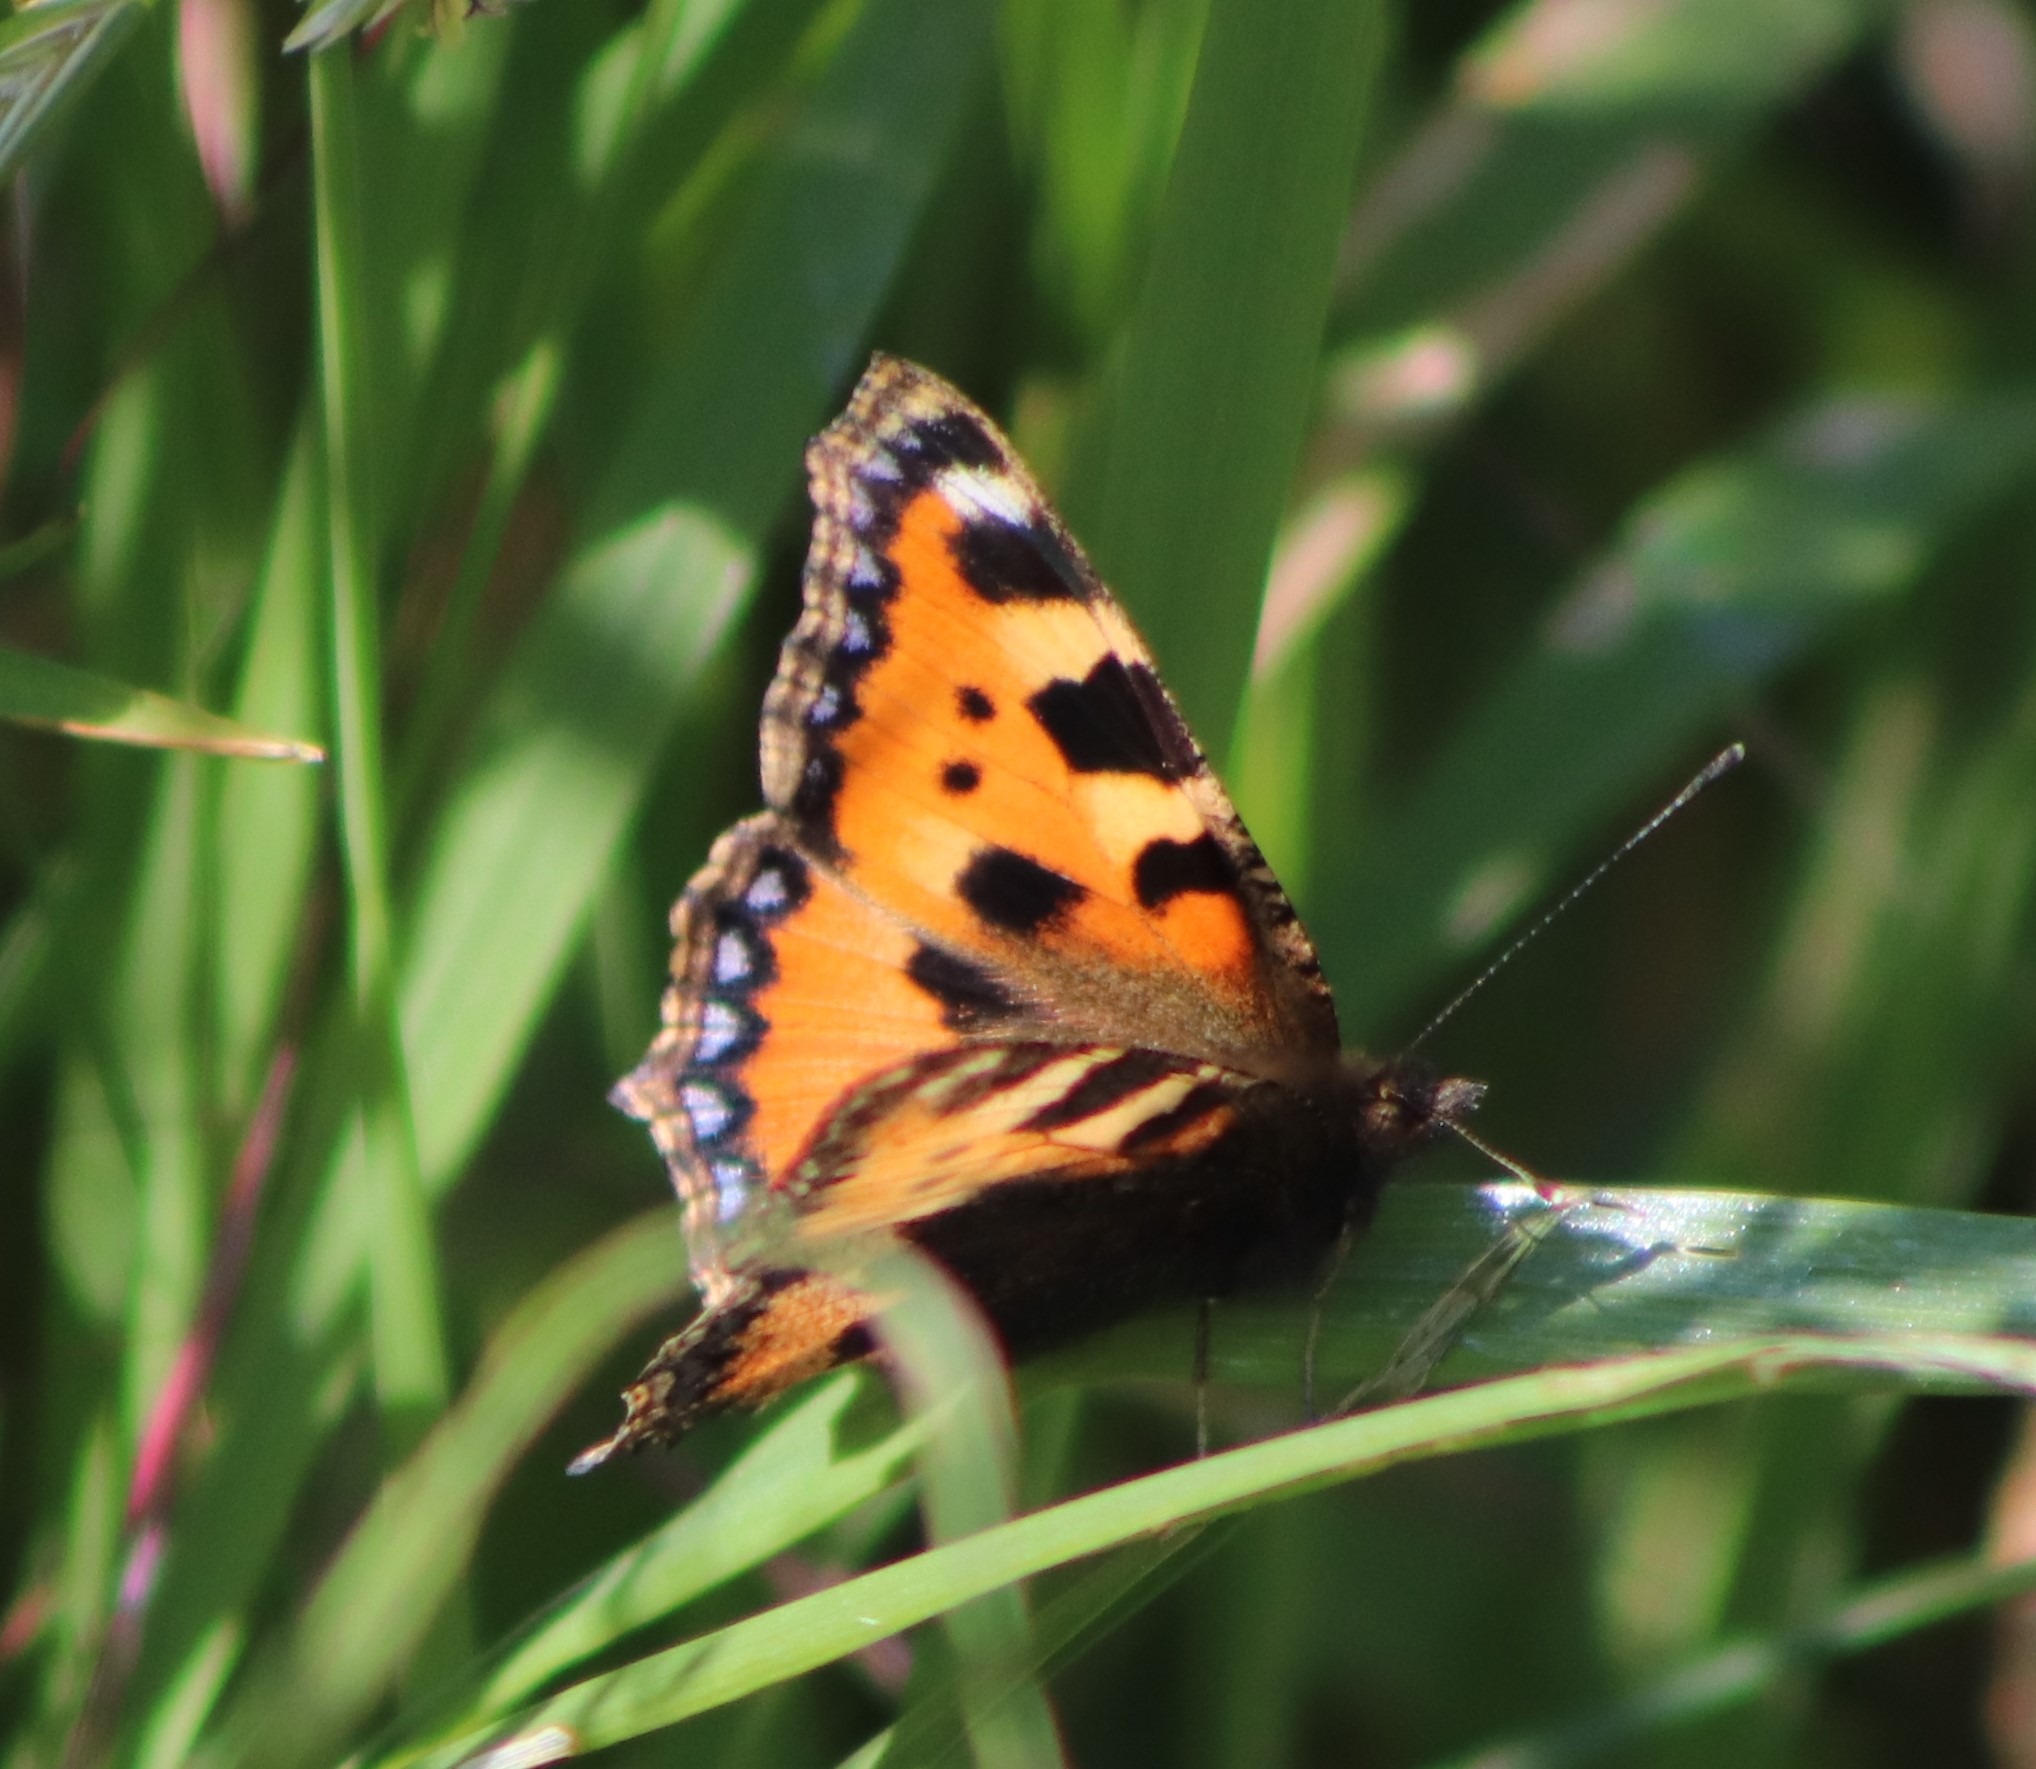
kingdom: Animalia
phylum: Arthropoda
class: Insecta
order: Lepidoptera
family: Nymphalidae
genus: Aglais
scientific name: Aglais urticae
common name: Nældens takvinge
